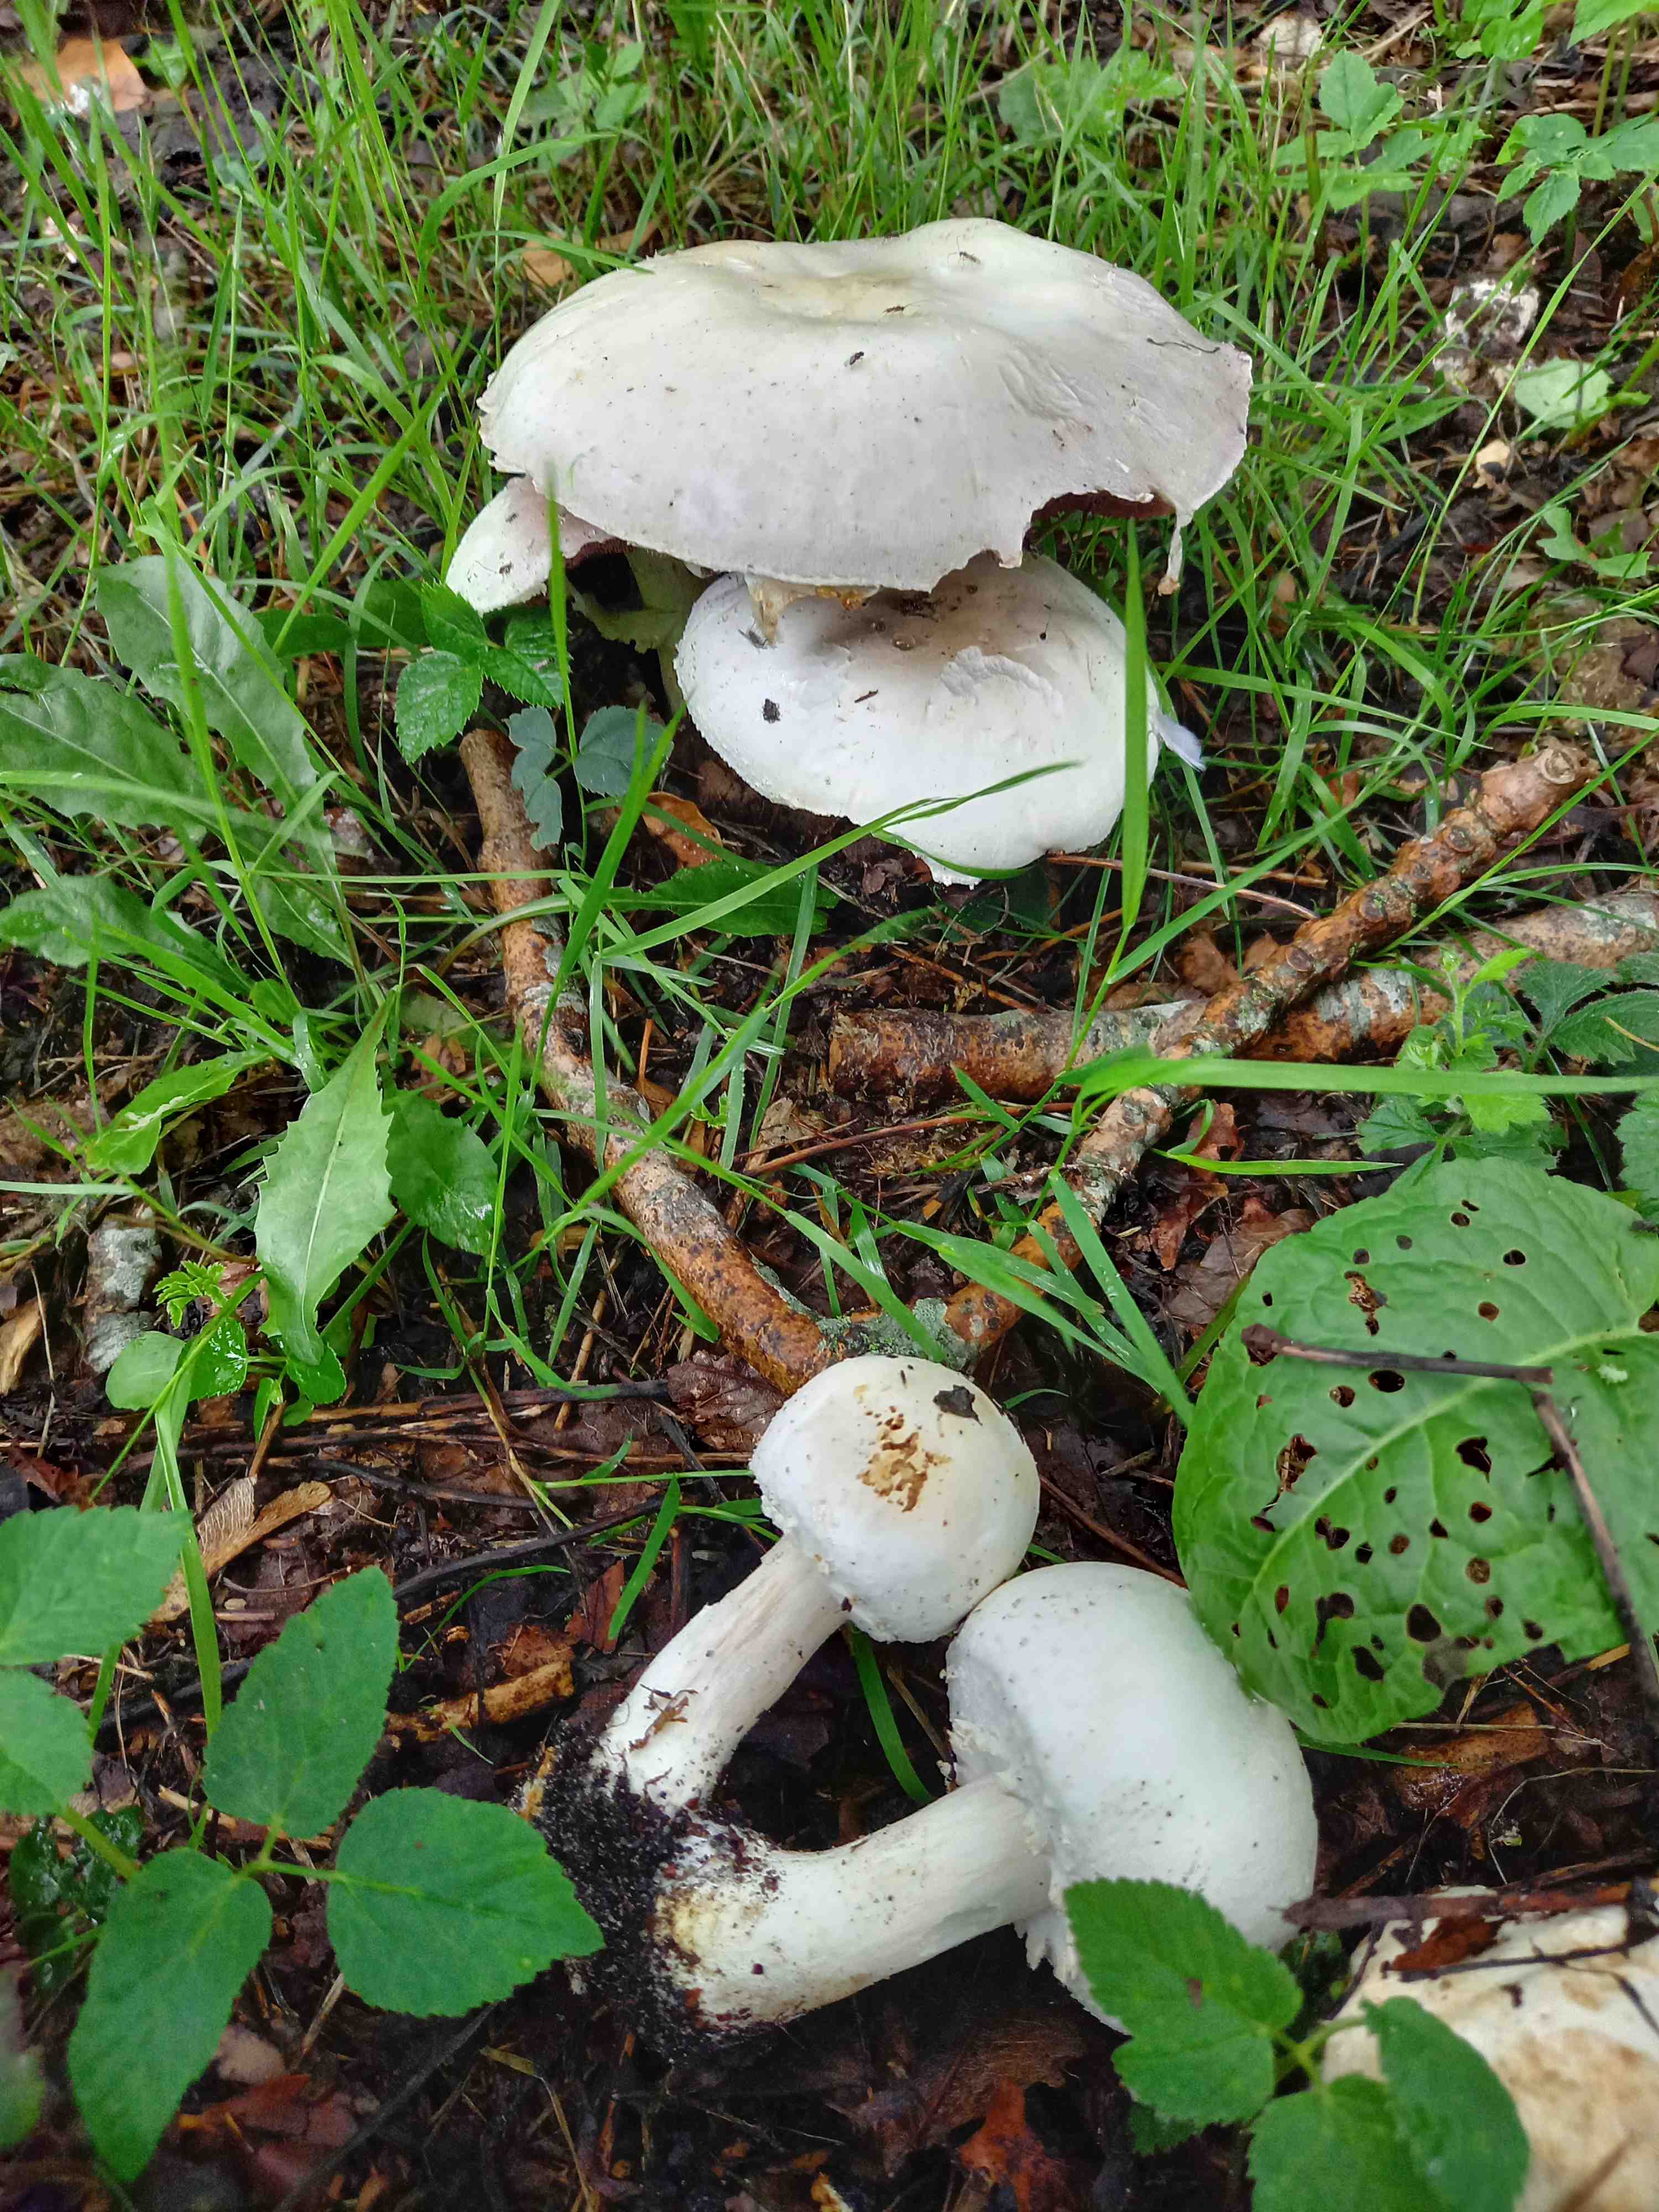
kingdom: Fungi
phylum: Basidiomycota
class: Agaricomycetes
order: Agaricales
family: Agaricaceae
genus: Agaricus
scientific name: Agaricus
